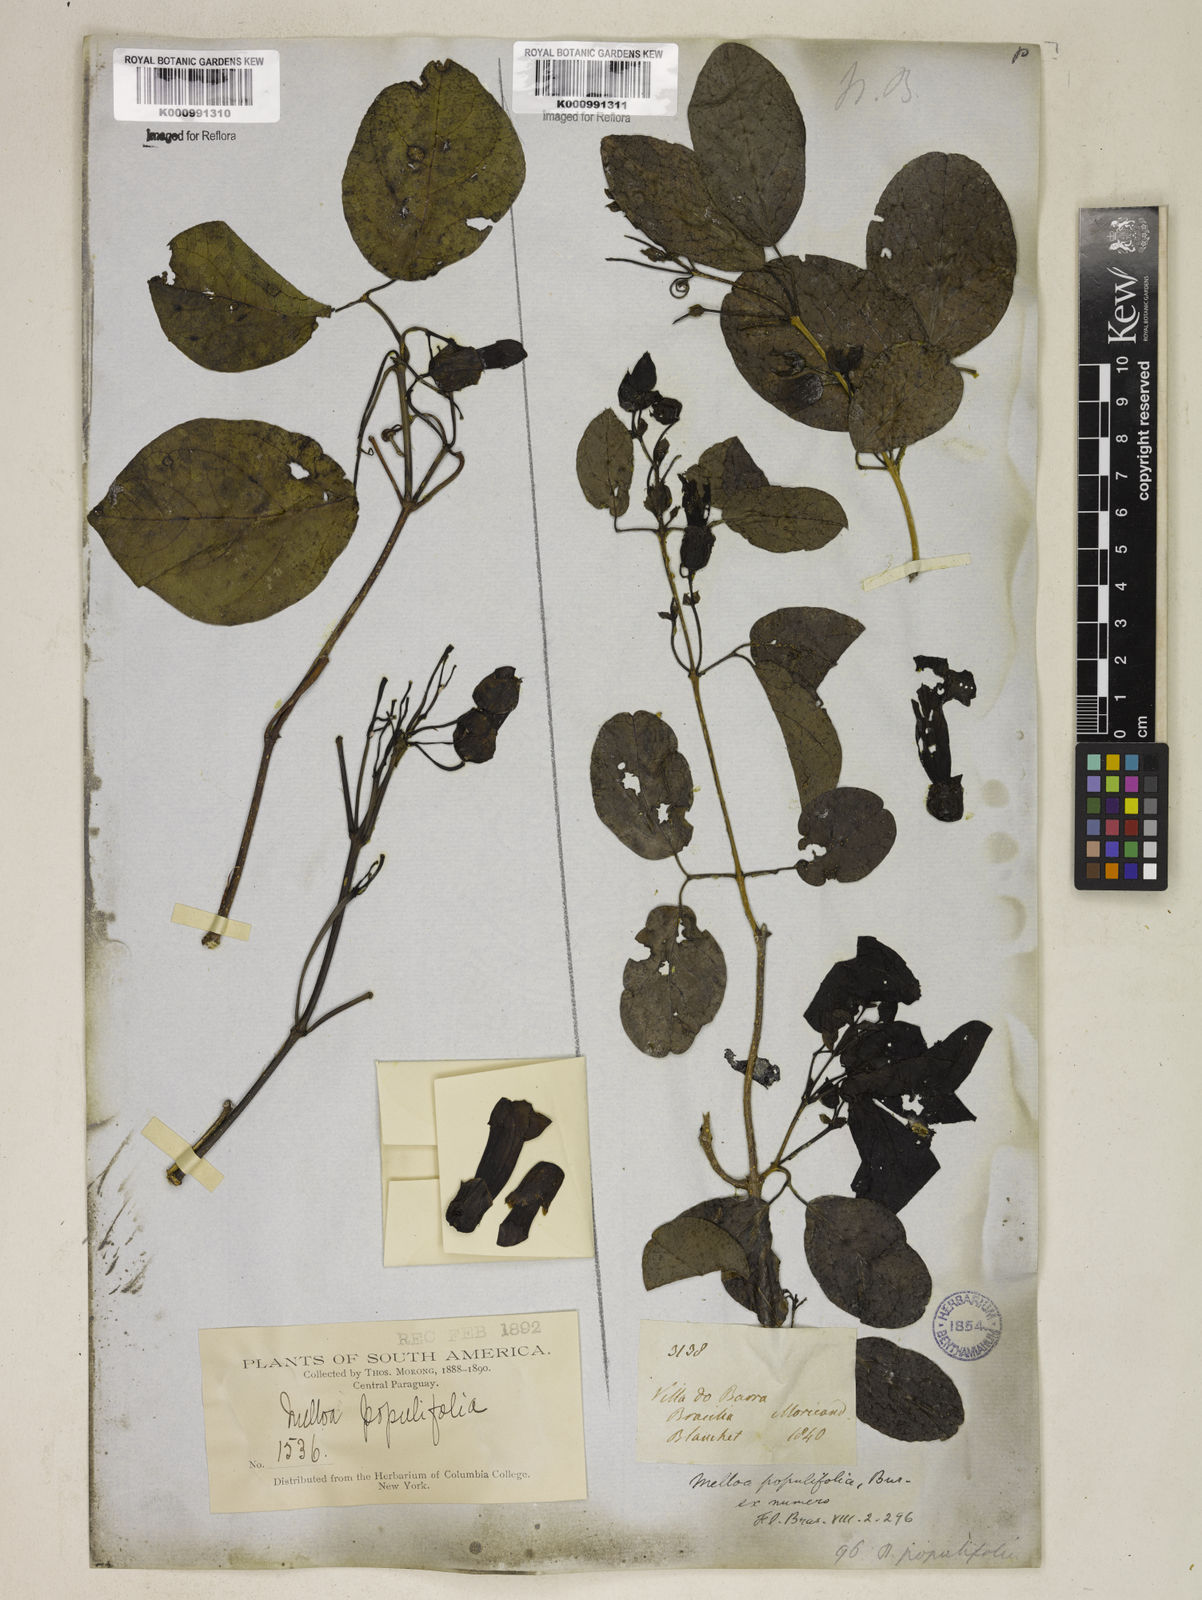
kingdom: Plantae
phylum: Tracheophyta
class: Magnoliopsida
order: Lamiales
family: Bignoniaceae
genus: Dolichandra
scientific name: Dolichandra quadrivalvis
